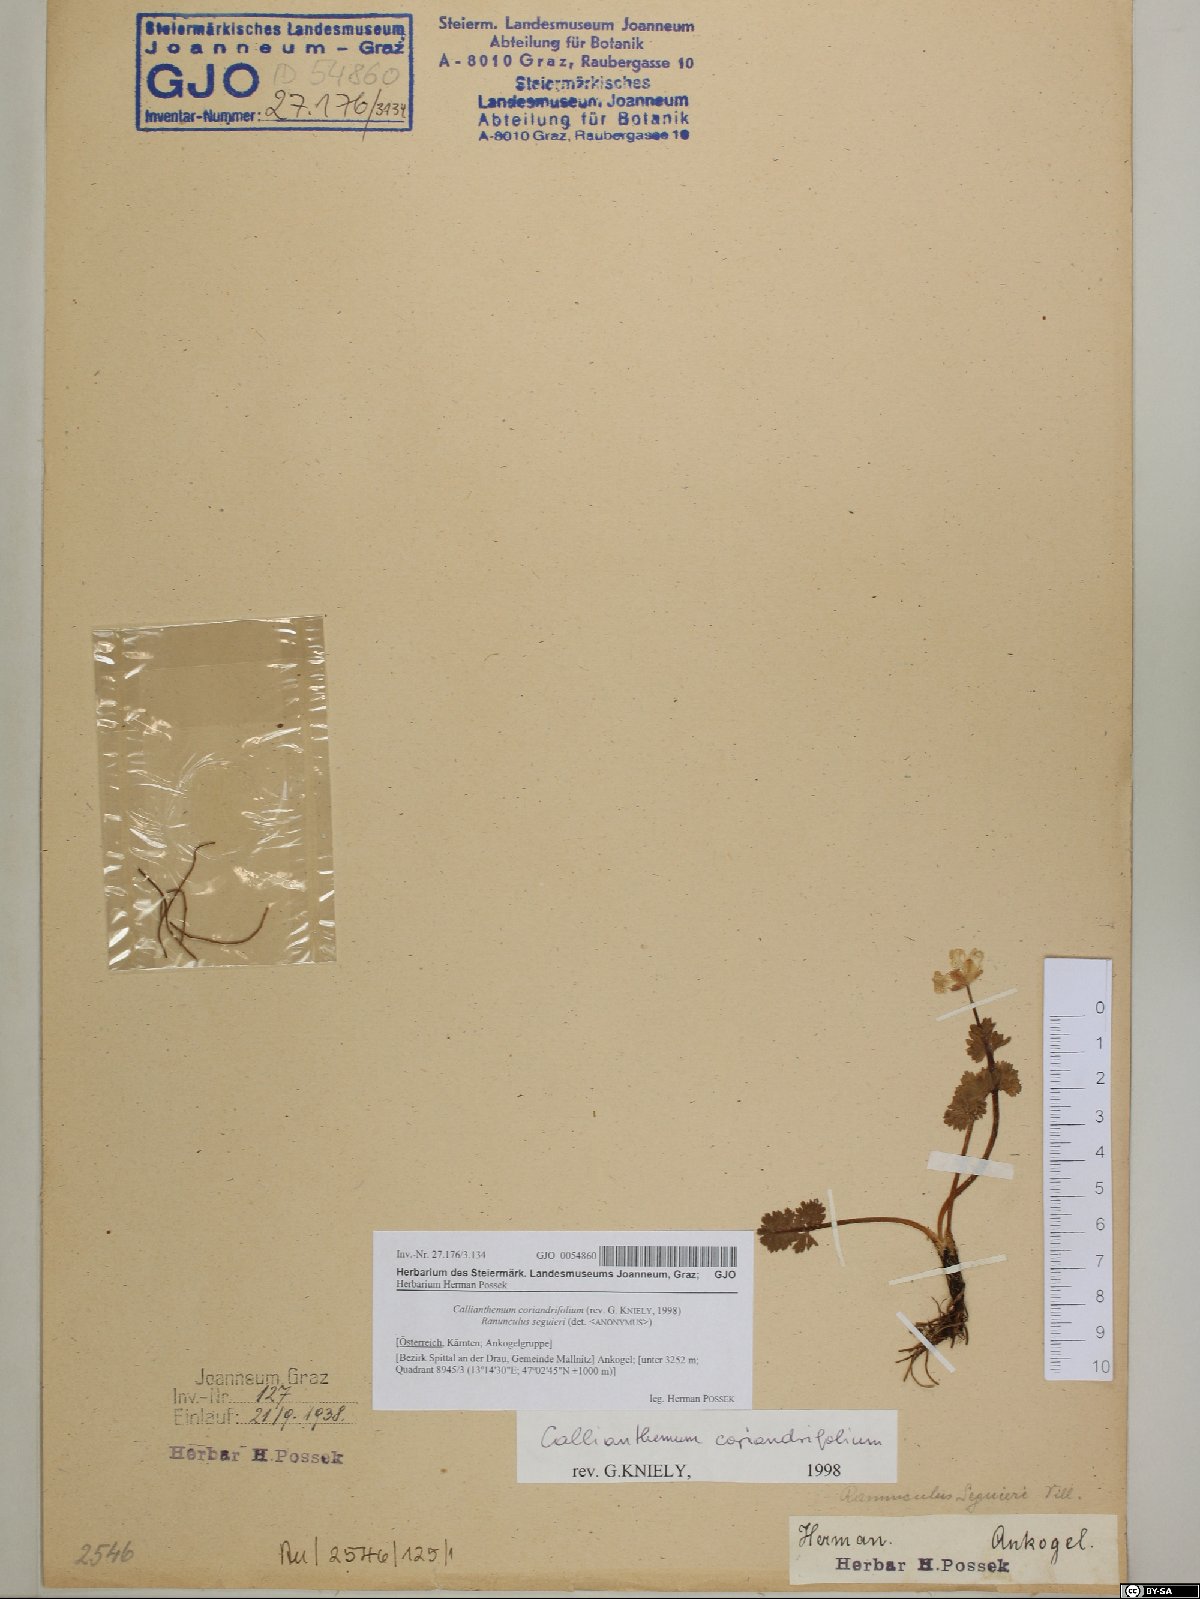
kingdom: Plantae
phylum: Tracheophyta
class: Magnoliopsida
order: Ranunculales
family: Ranunculaceae
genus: Callianthemum
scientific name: Callianthemum coriandrifolium
